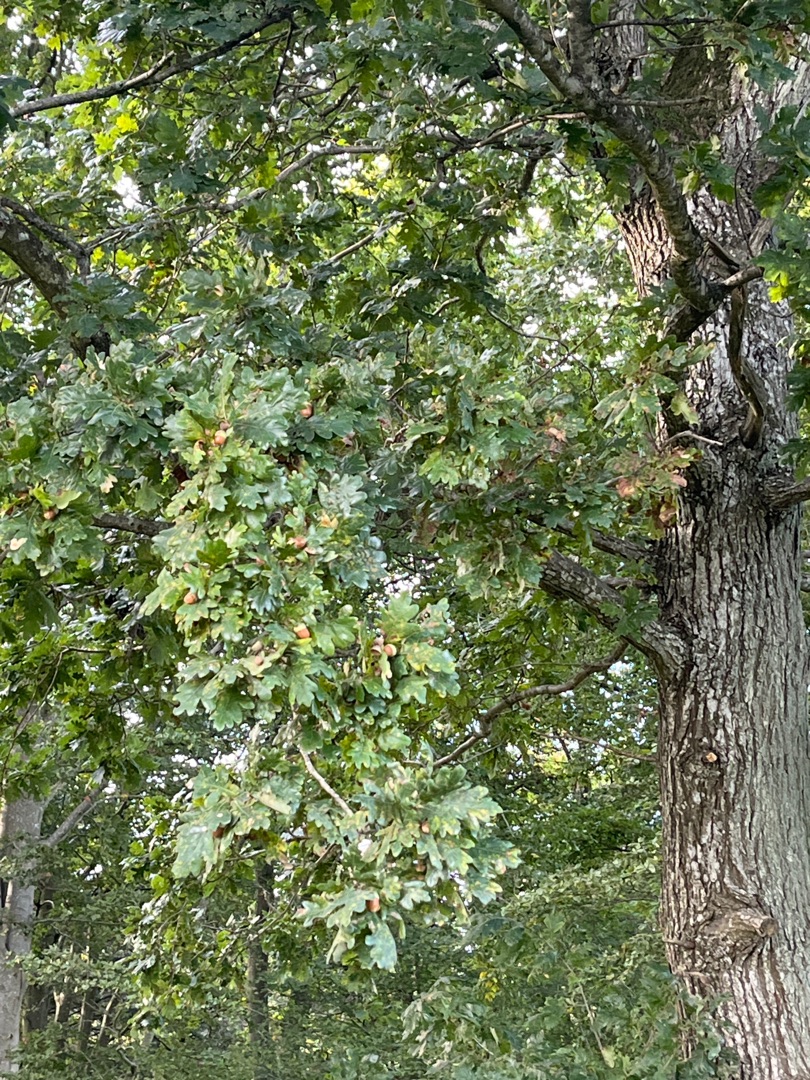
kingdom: Plantae
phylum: Tracheophyta
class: Magnoliopsida
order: Fagales
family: Fagaceae
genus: Quercus
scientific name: Quercus robur
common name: Stilk-eg/almindelig eg
